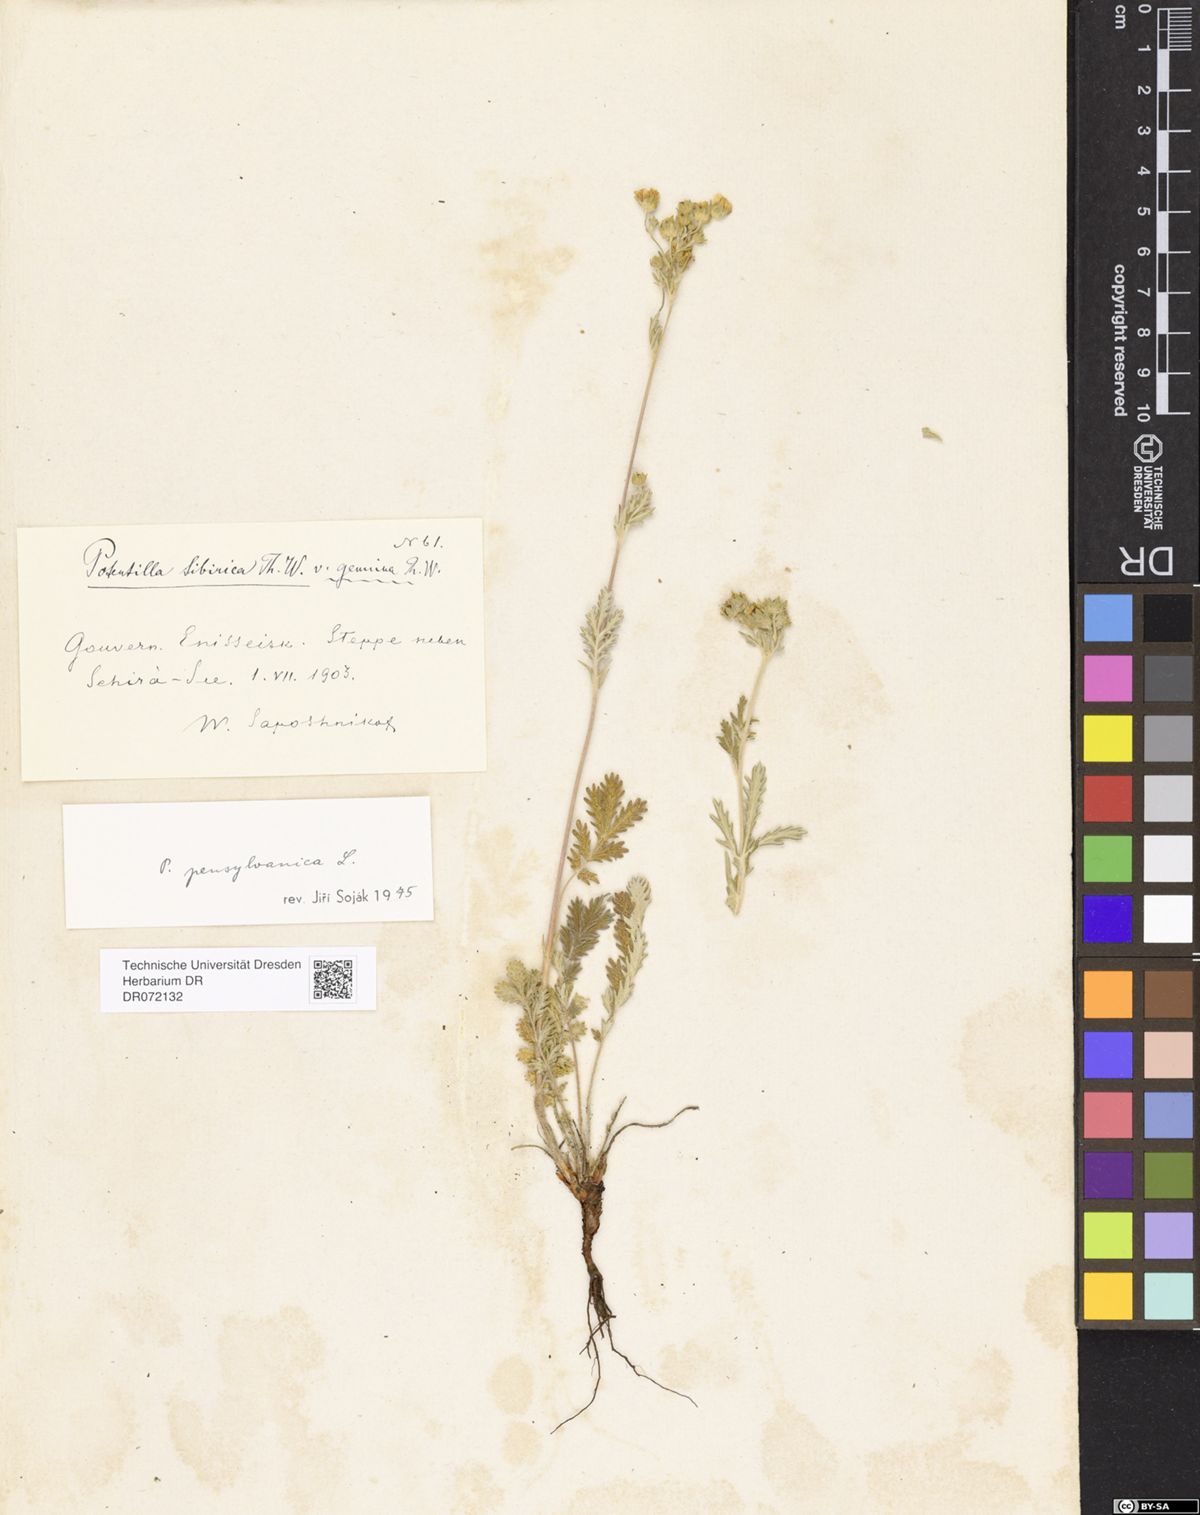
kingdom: Plantae
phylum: Tracheophyta
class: Magnoliopsida
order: Rosales
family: Rosaceae
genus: Potentilla
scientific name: Potentilla pensylvanica
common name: Pennsylvania cinquefoil
